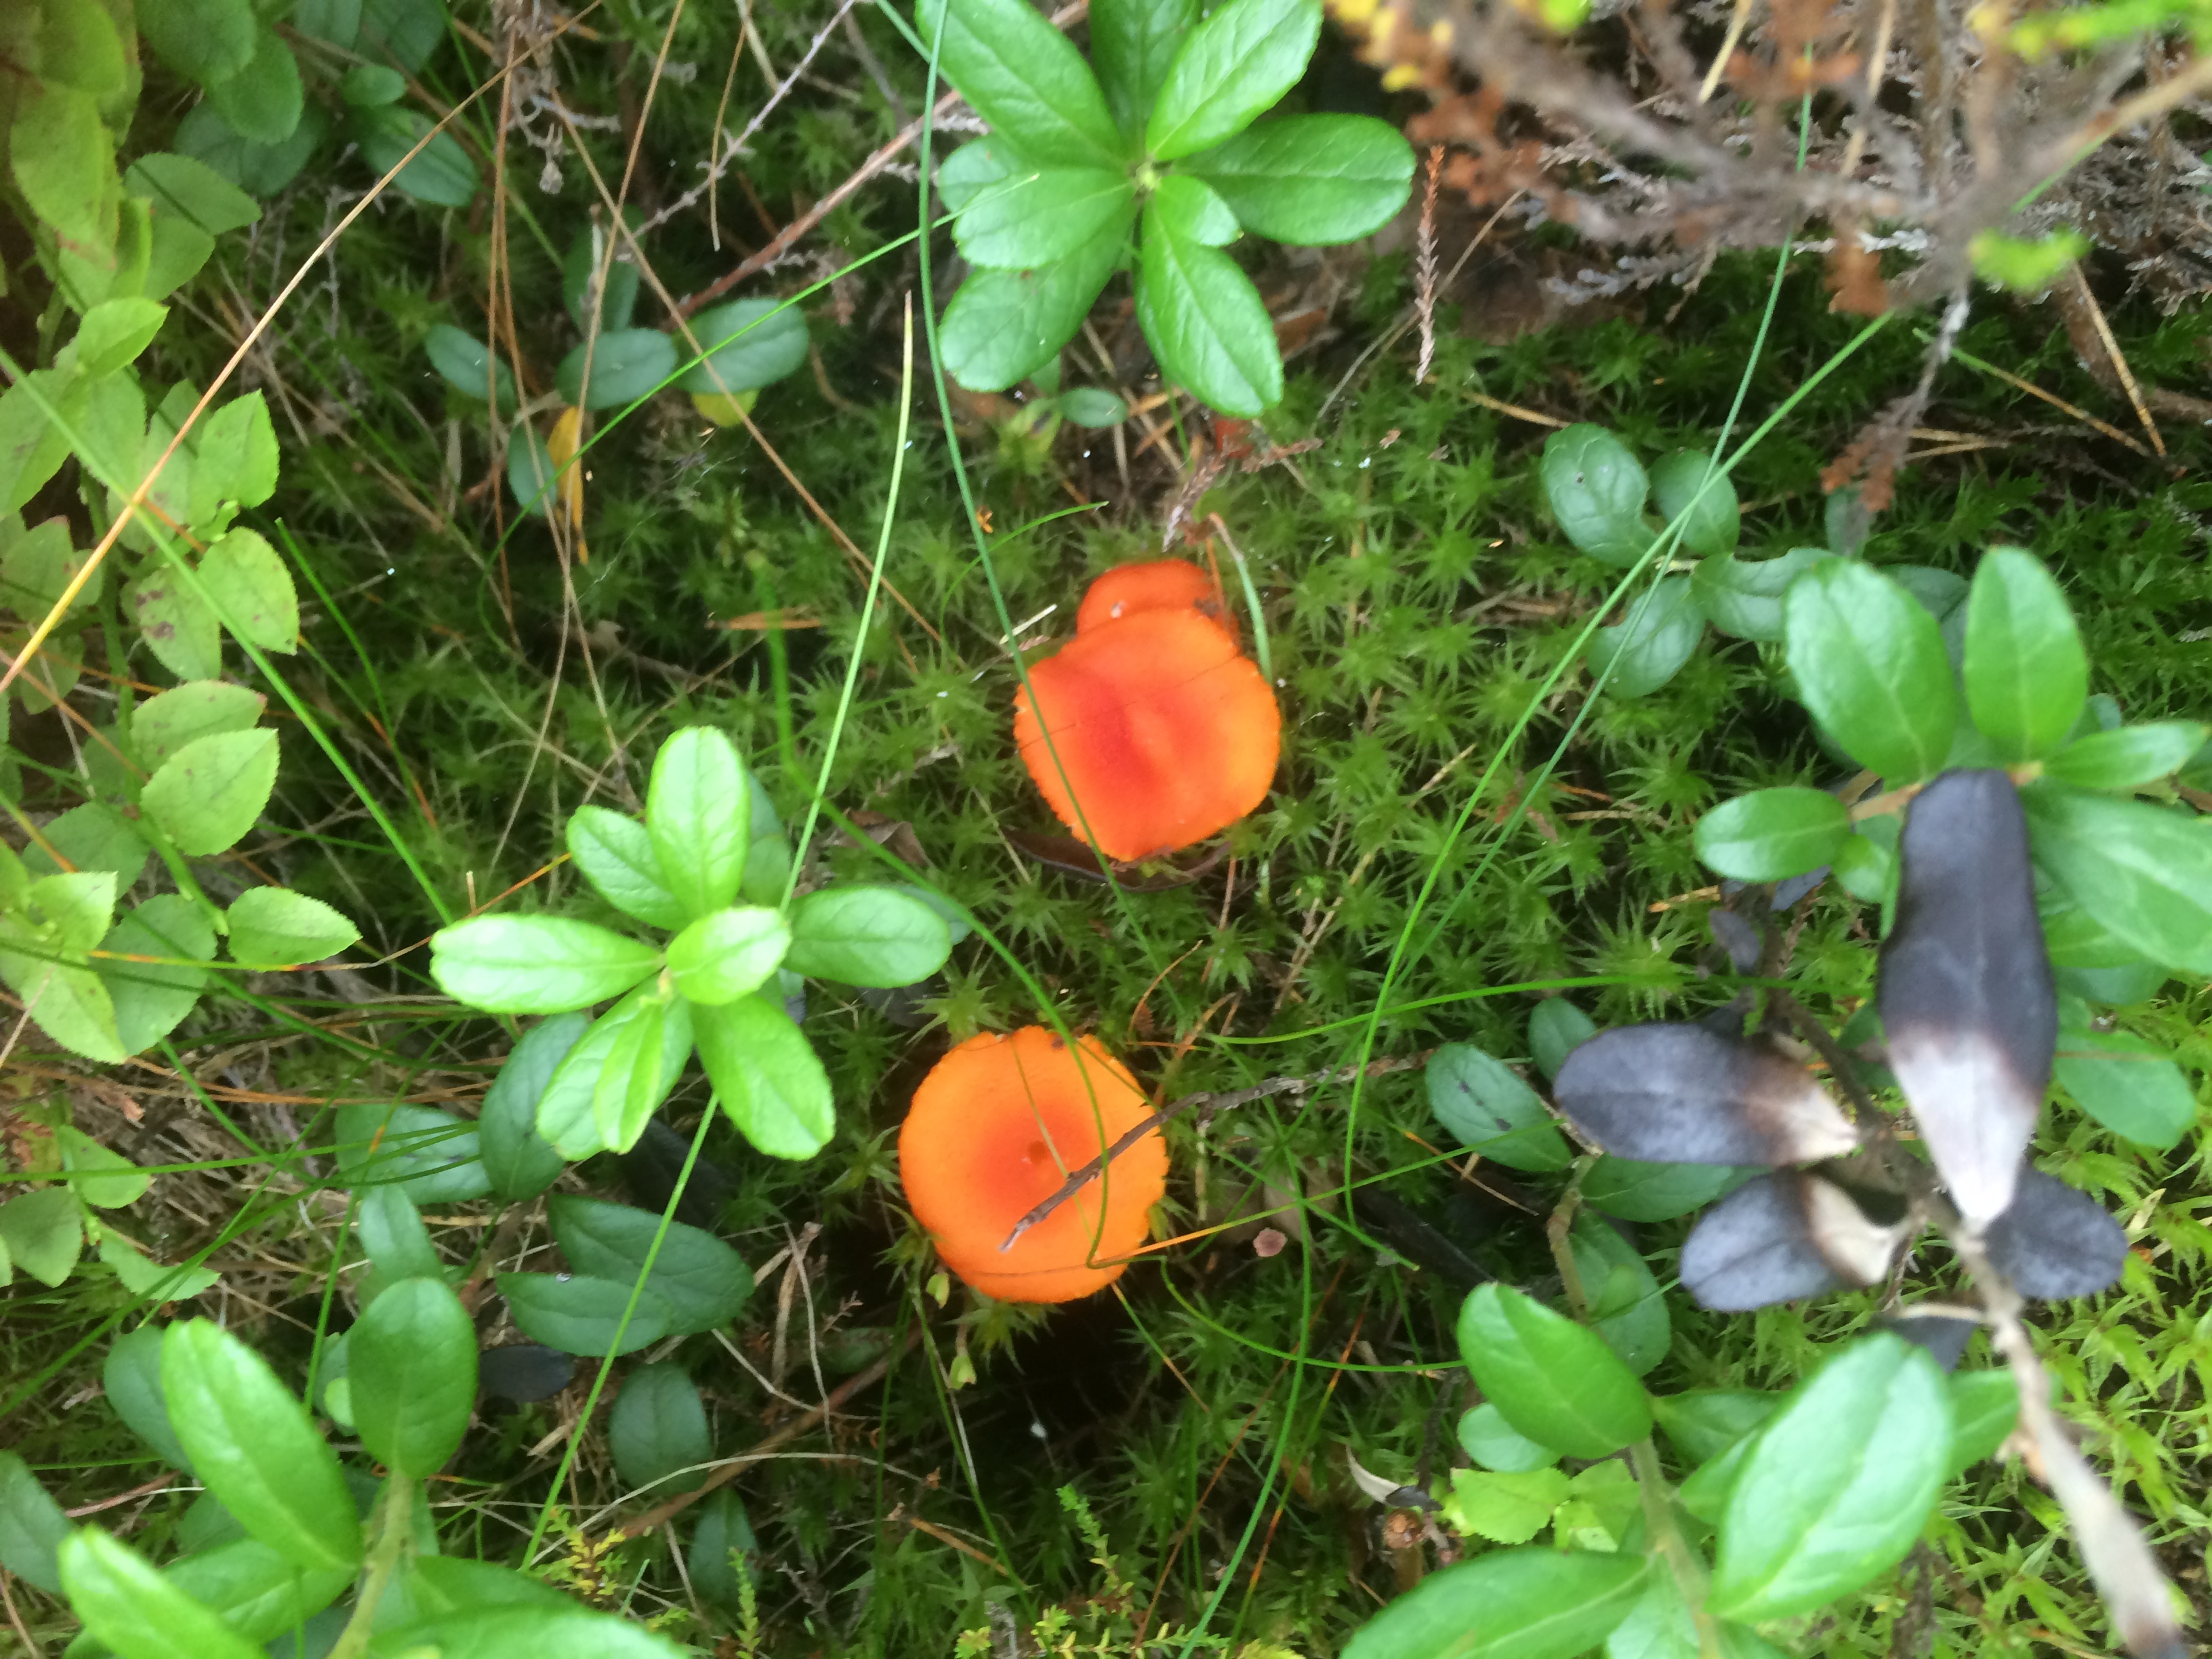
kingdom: Fungi
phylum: Basidiomycota
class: Agaricomycetes
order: Agaricales
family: Hygrophoraceae
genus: Hygrocybe
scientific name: Hygrocybe miniata
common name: Vermilion waxcap
